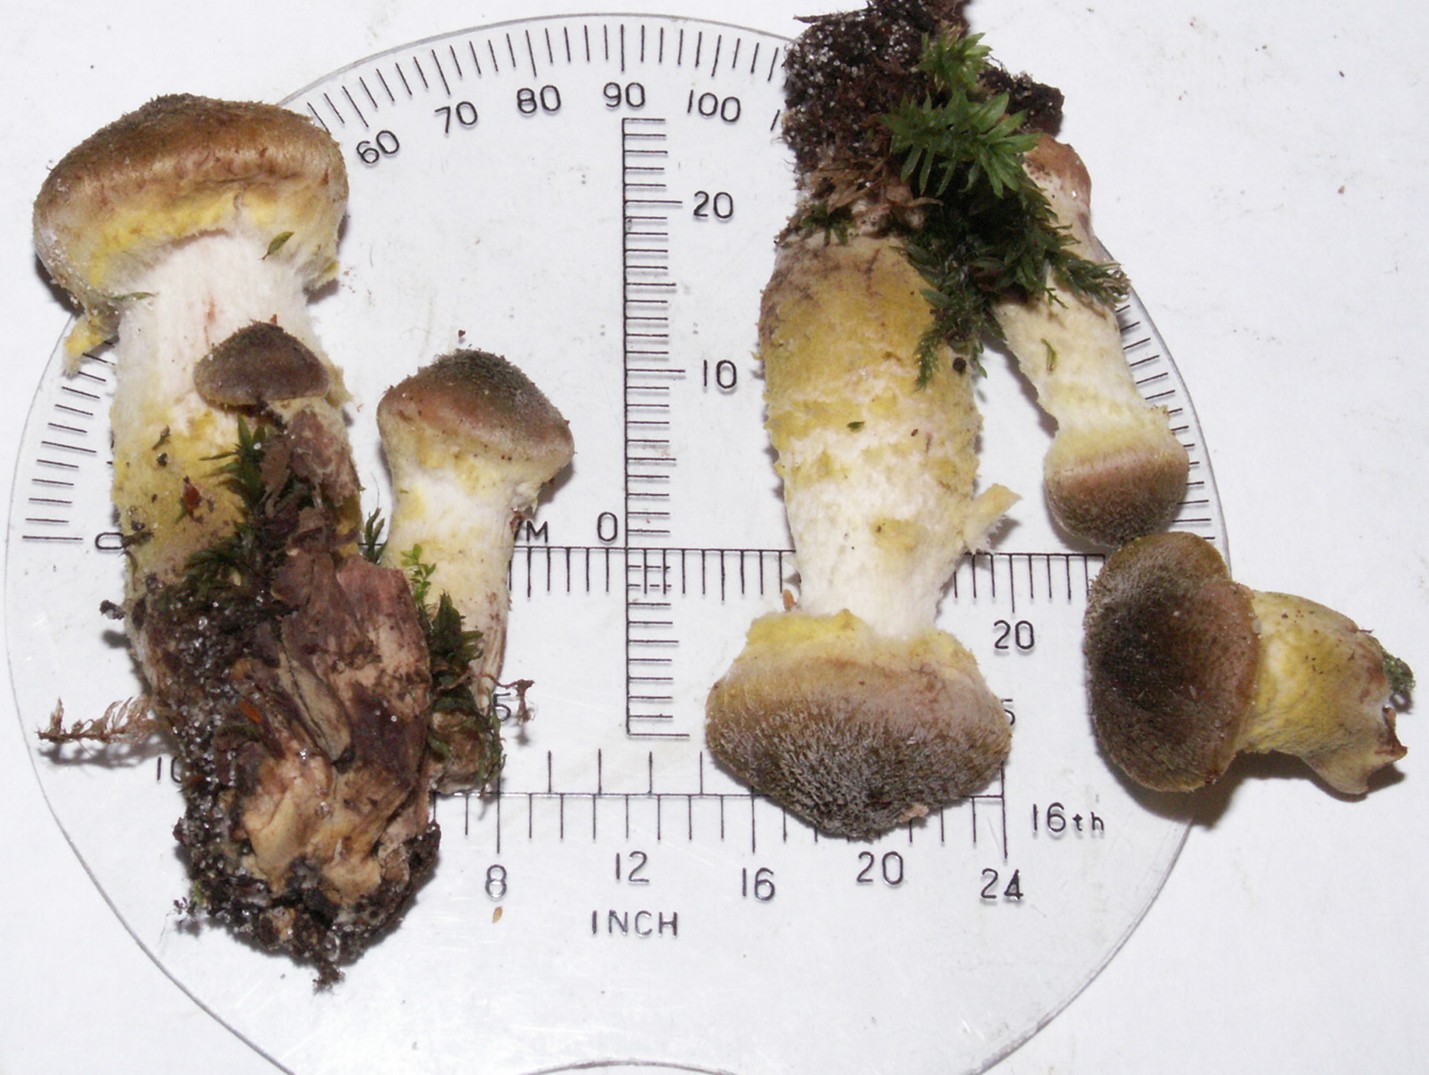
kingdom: Fungi
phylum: Basidiomycota
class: Agaricomycetes
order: Agaricales
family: Physalacriaceae
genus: Armillaria
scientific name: Armillaria lutea
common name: køllestokket honningsvamp
